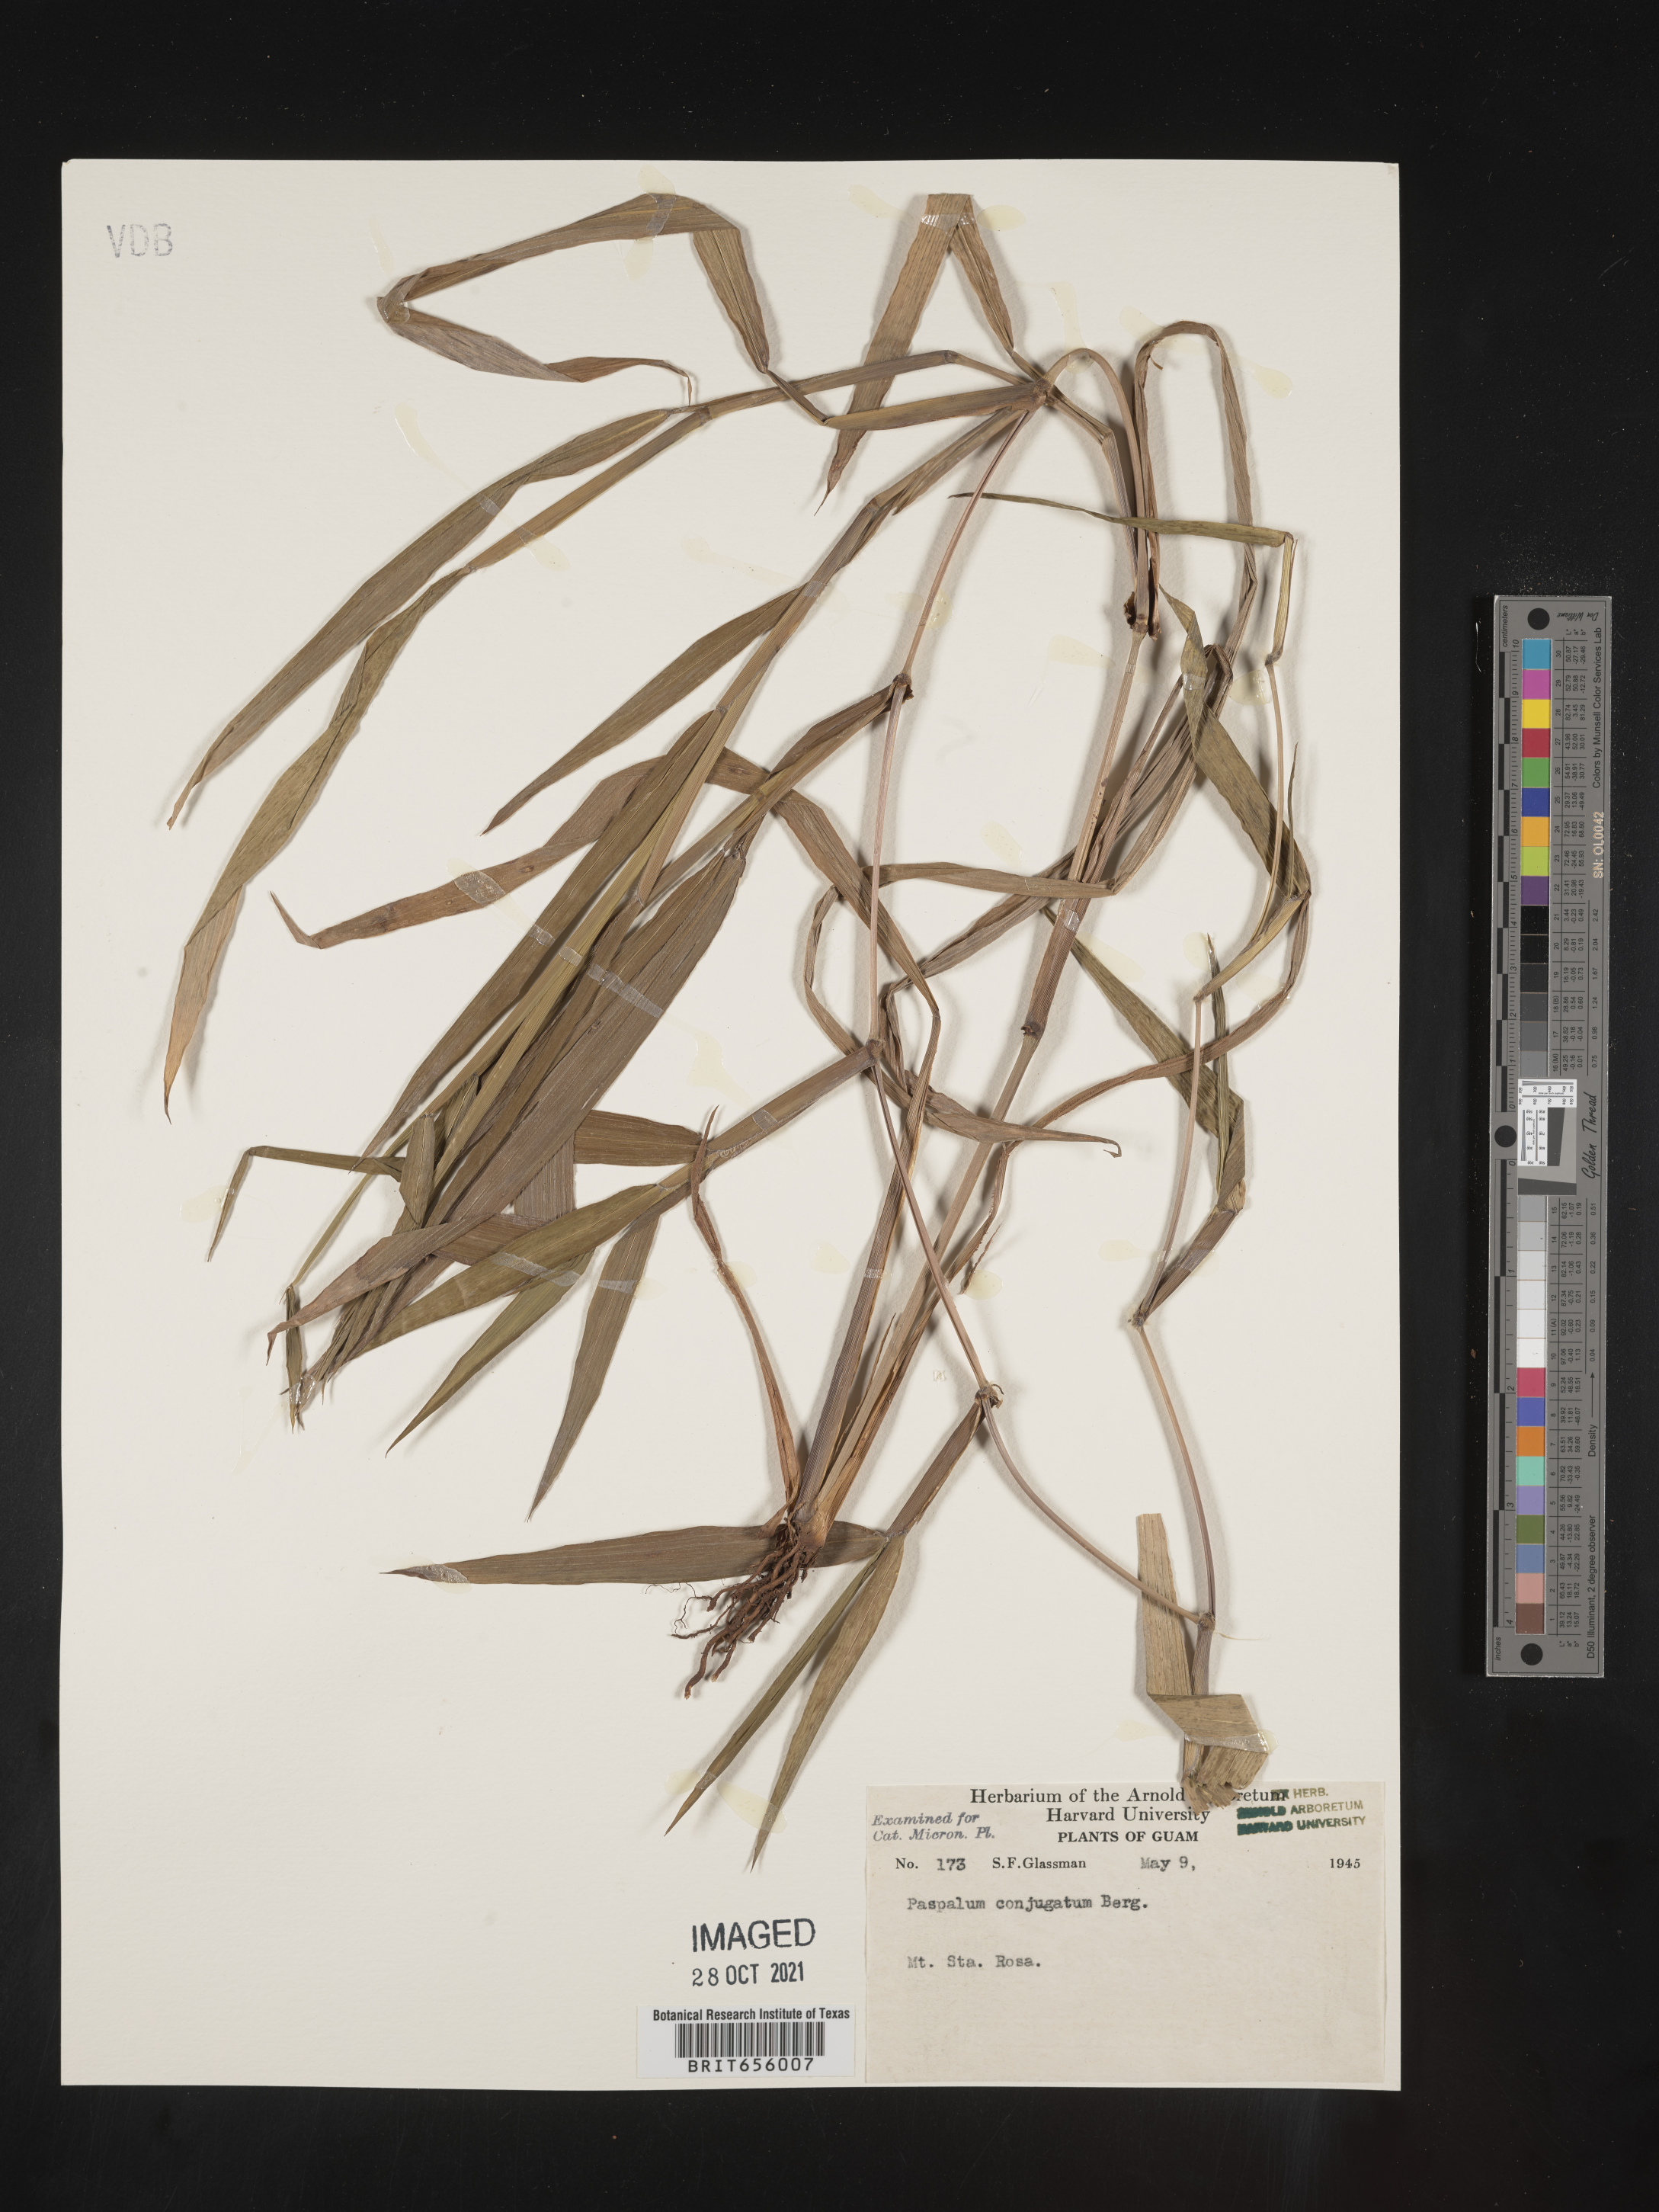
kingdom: Plantae
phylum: Tracheophyta
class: Liliopsida
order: Poales
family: Poaceae
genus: Paspalum
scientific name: Paspalum
